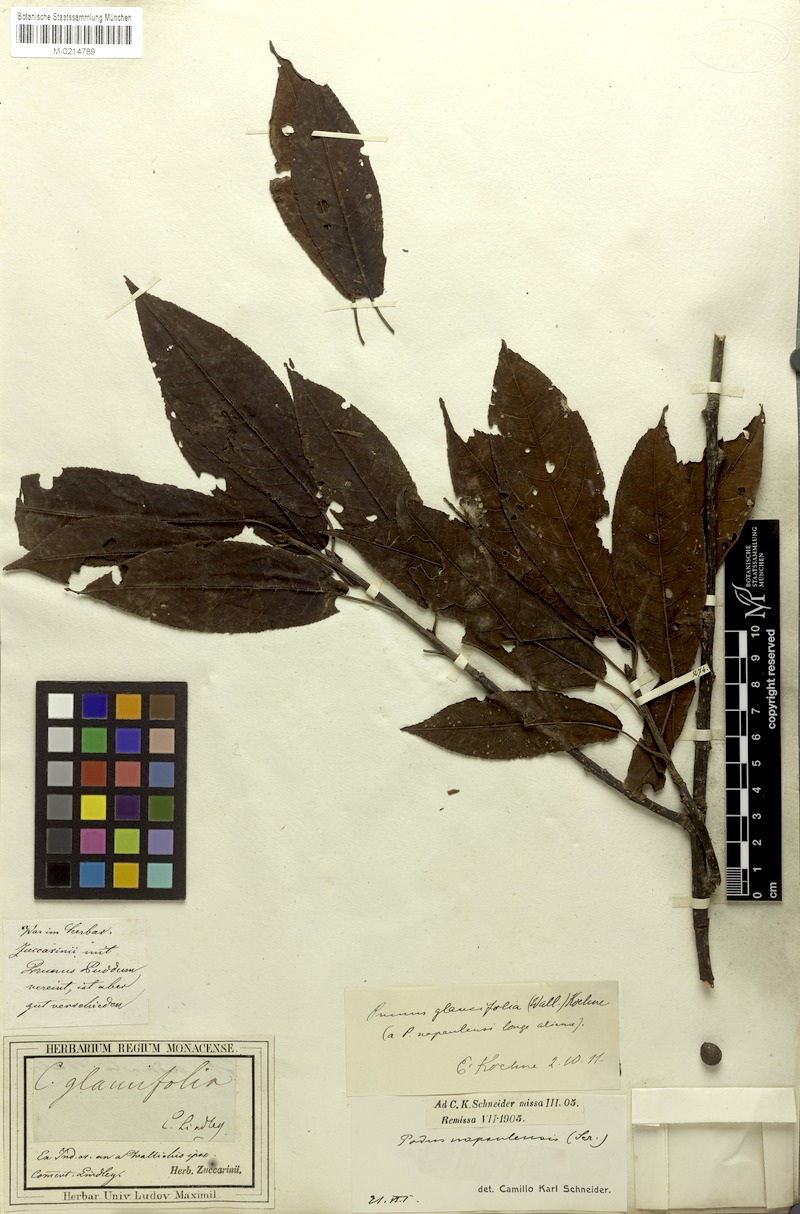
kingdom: Plantae
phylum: Tracheophyta
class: Magnoliopsida
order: Rosales
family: Rosaceae
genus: Prunus
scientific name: Prunus napaulensis
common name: Khasia cherry
